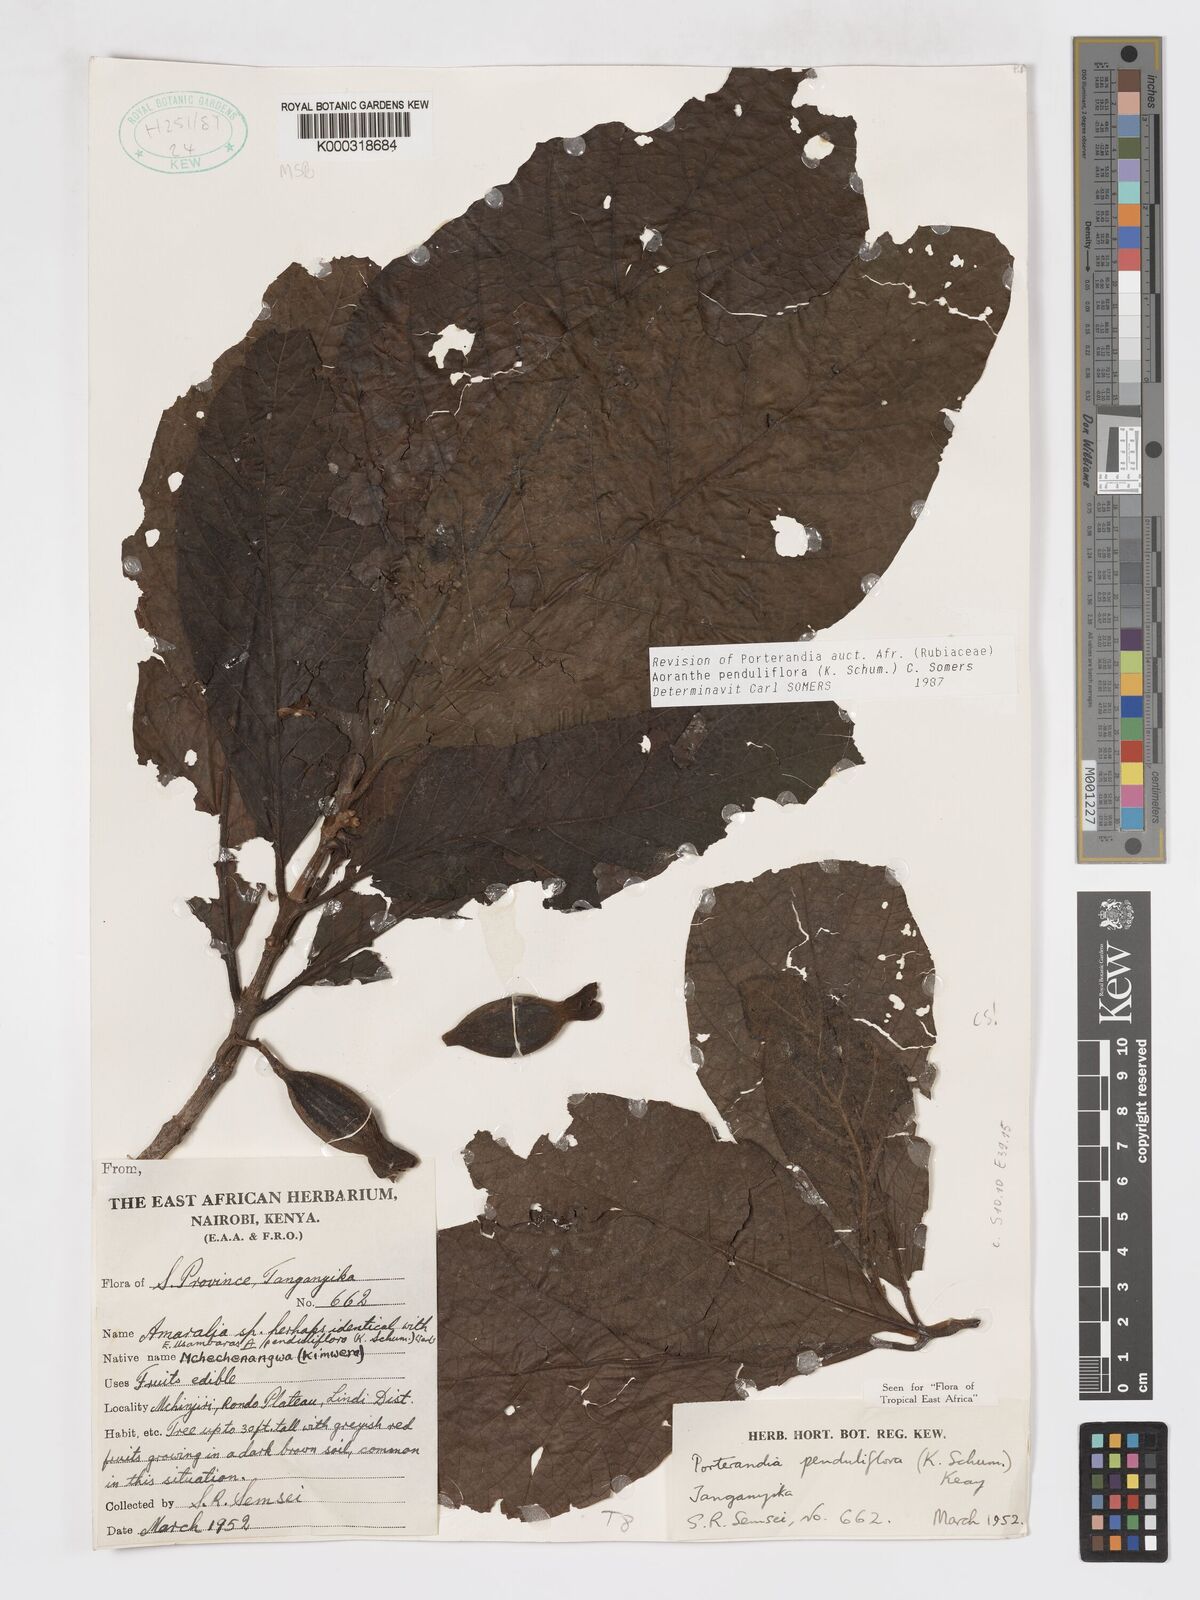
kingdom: Plantae
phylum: Tracheophyta
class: Magnoliopsida
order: Gentianales
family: Rubiaceae
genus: Aoranthe
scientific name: Aoranthe penduliflora
